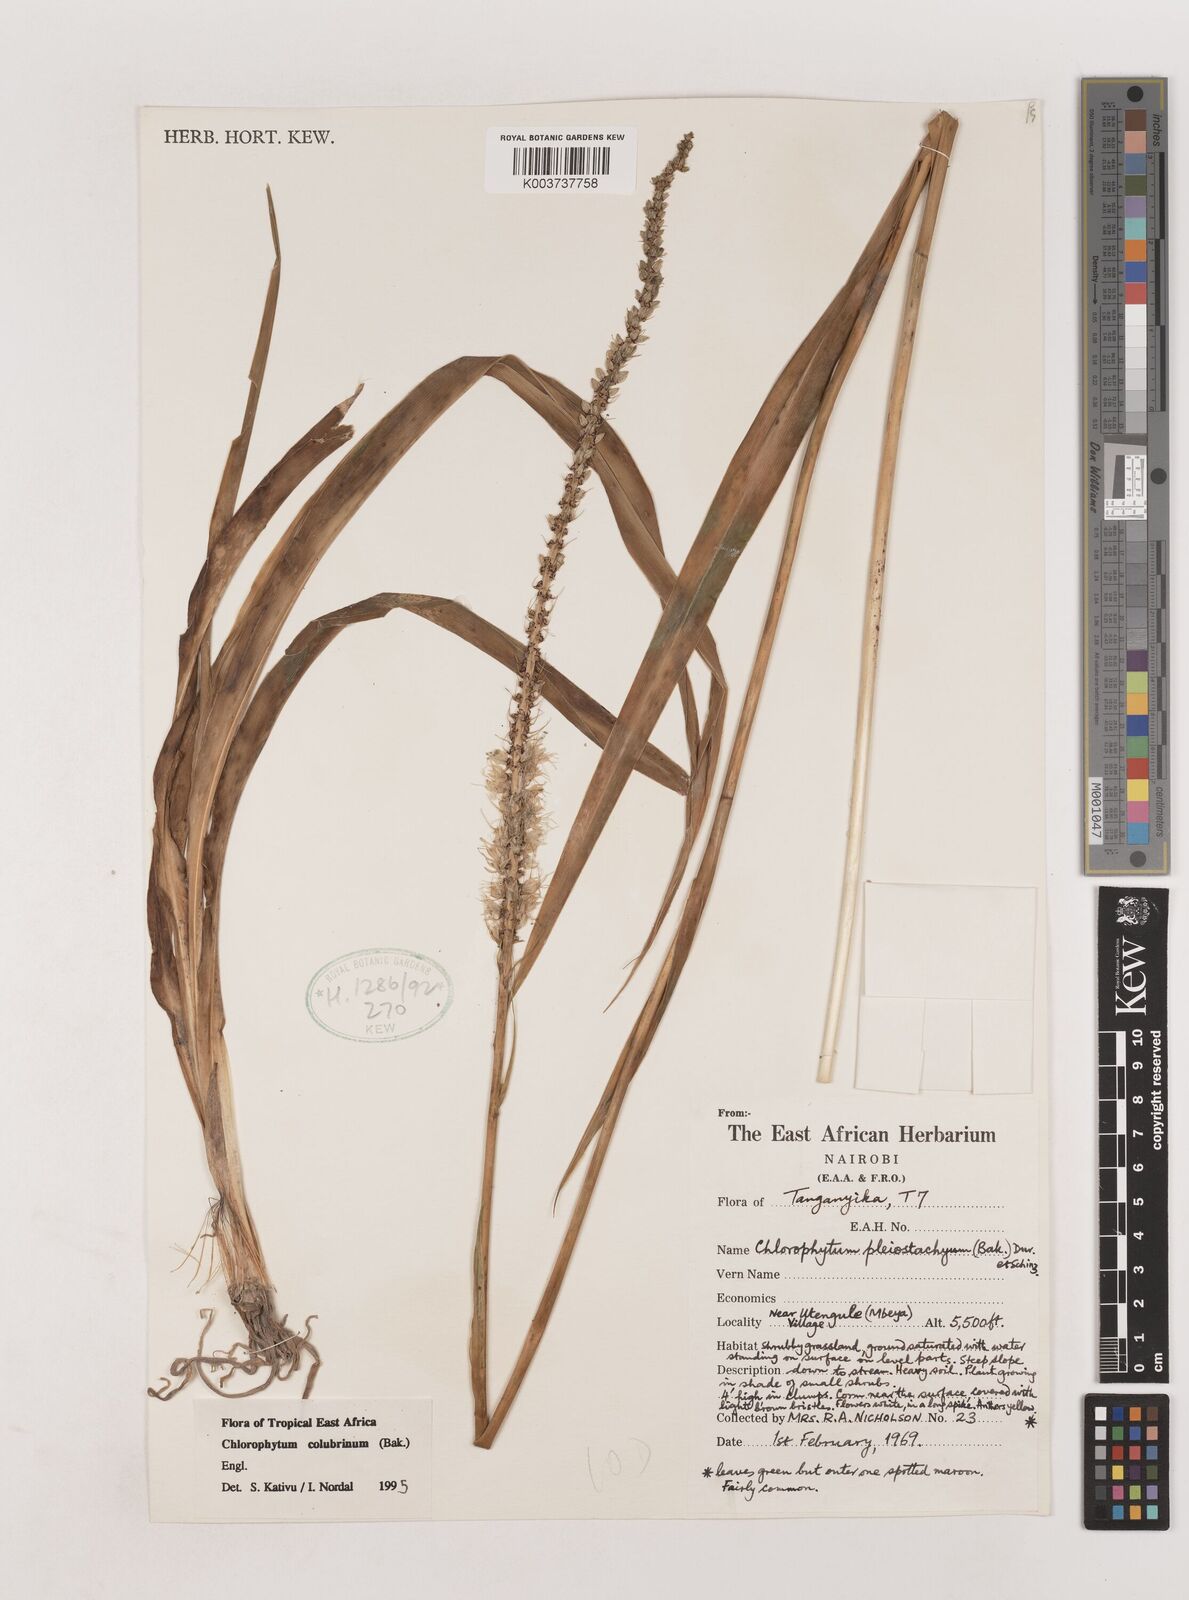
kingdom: Plantae
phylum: Tracheophyta
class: Liliopsida
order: Asparagales
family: Asparagaceae
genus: Chlorophytum
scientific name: Chlorophytum colubrinum
